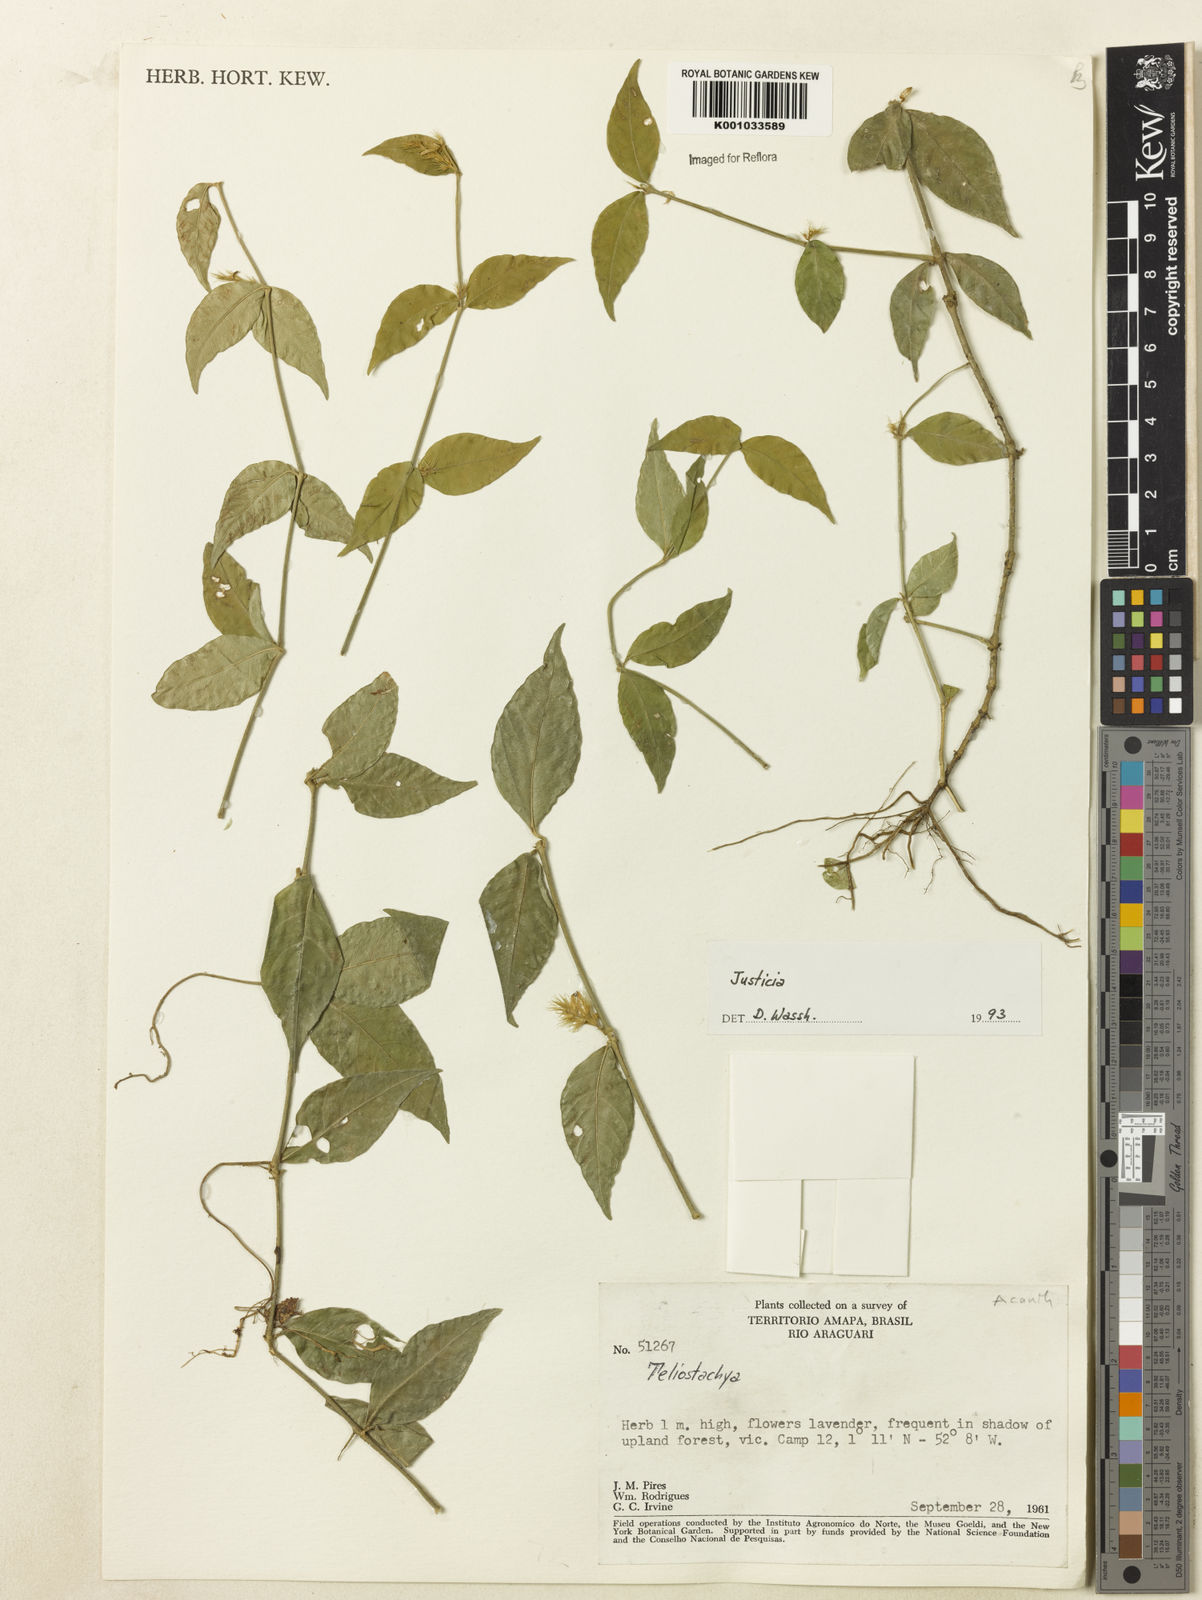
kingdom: Plantae
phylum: Tracheophyta
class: Magnoliopsida
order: Lamiales
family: Acanthaceae
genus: Justicia
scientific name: Justicia
